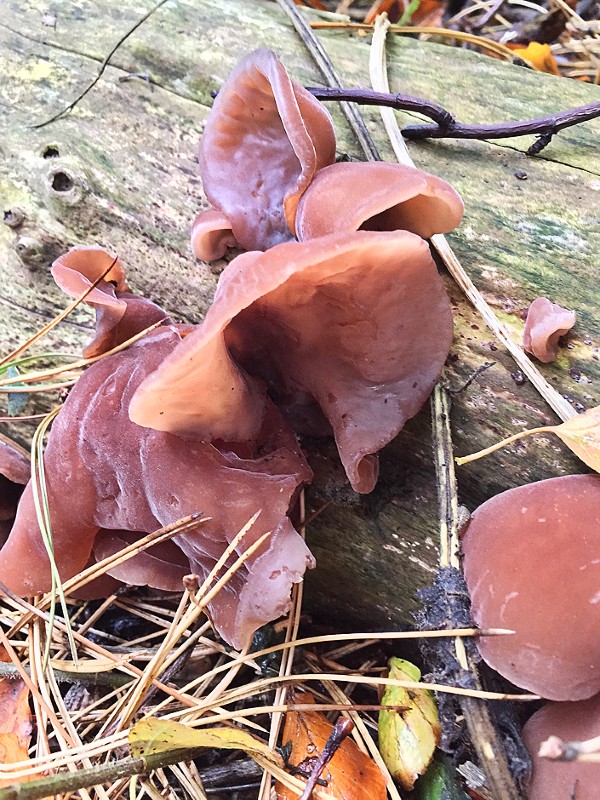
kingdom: Fungi
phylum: Basidiomycota
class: Agaricomycetes
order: Auriculariales
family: Auriculariaceae
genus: Auricularia
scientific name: Auricularia auricula-judae
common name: almindelig judasøre
